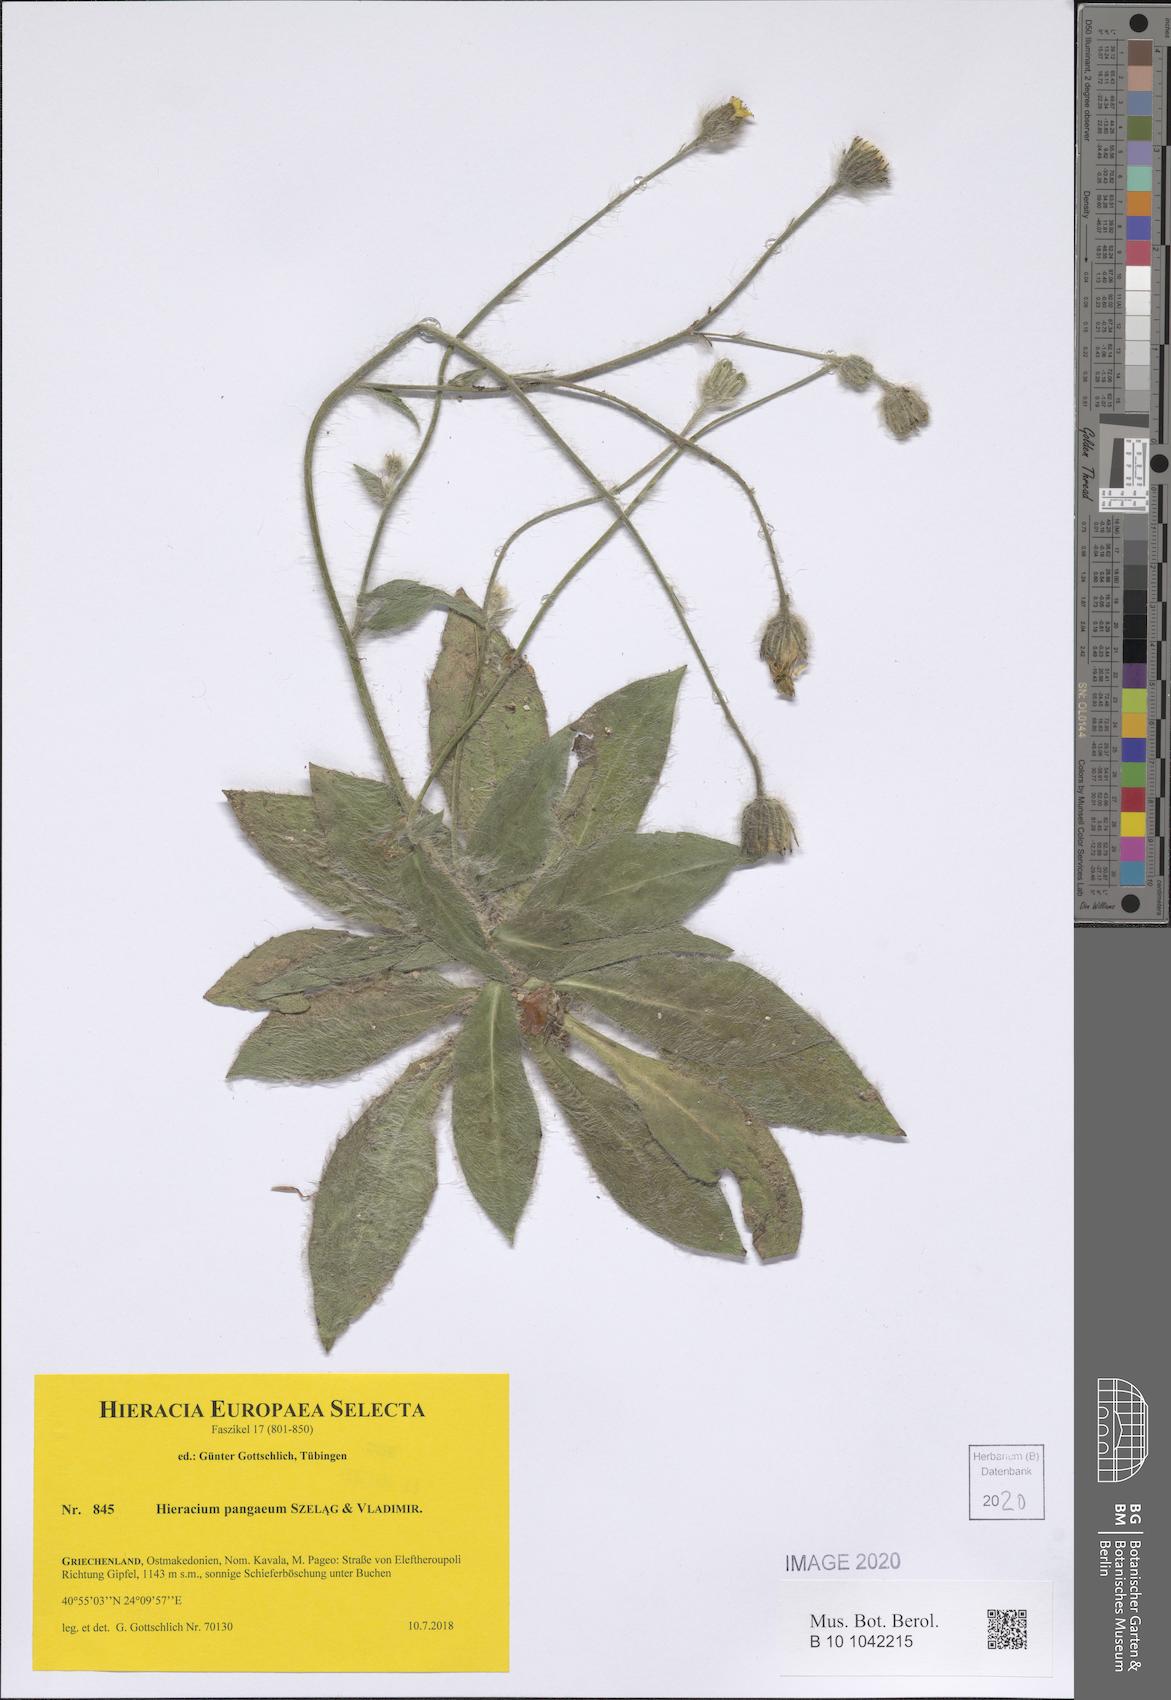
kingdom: Plantae
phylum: Tracheophyta
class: Magnoliopsida
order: Asterales
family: Asteraceae
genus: Hieracium
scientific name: Hieracium pangaeum
